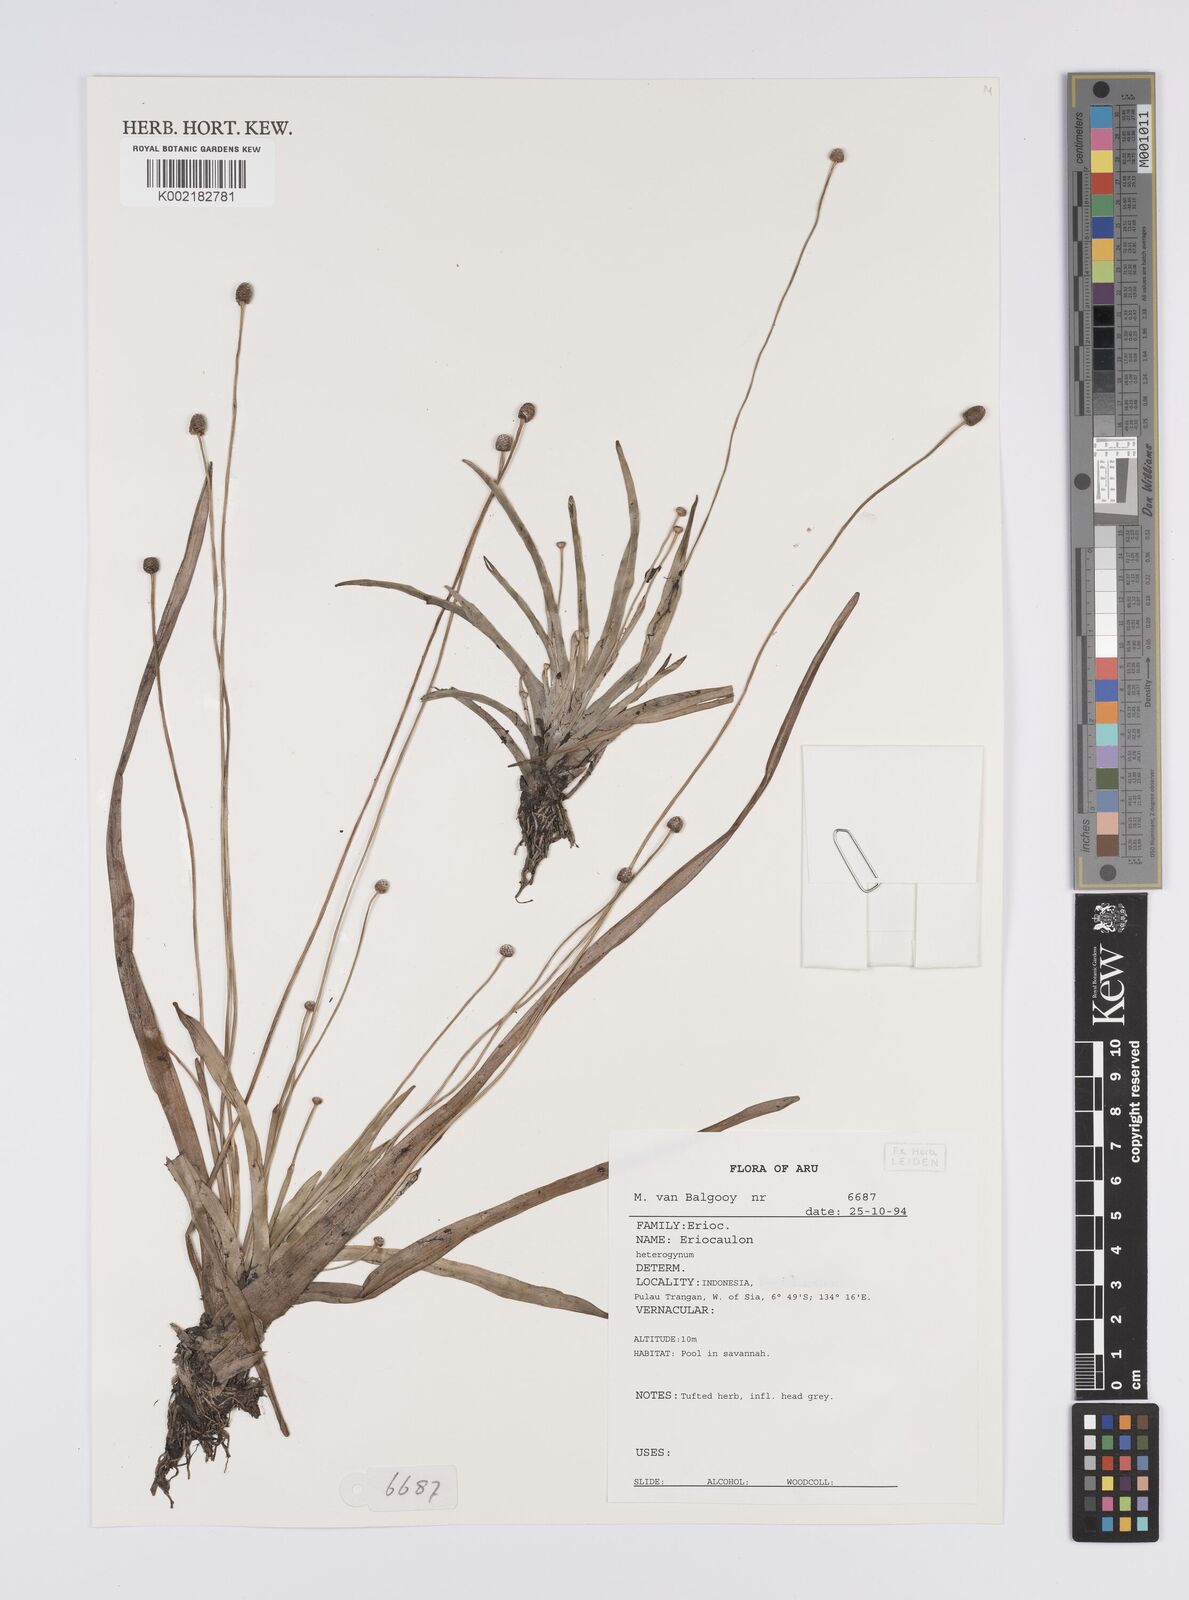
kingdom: Plantae
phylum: Tracheophyta
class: Liliopsida
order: Poales
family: Eriocaulaceae
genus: Eriocaulon
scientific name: Eriocaulon depressum
